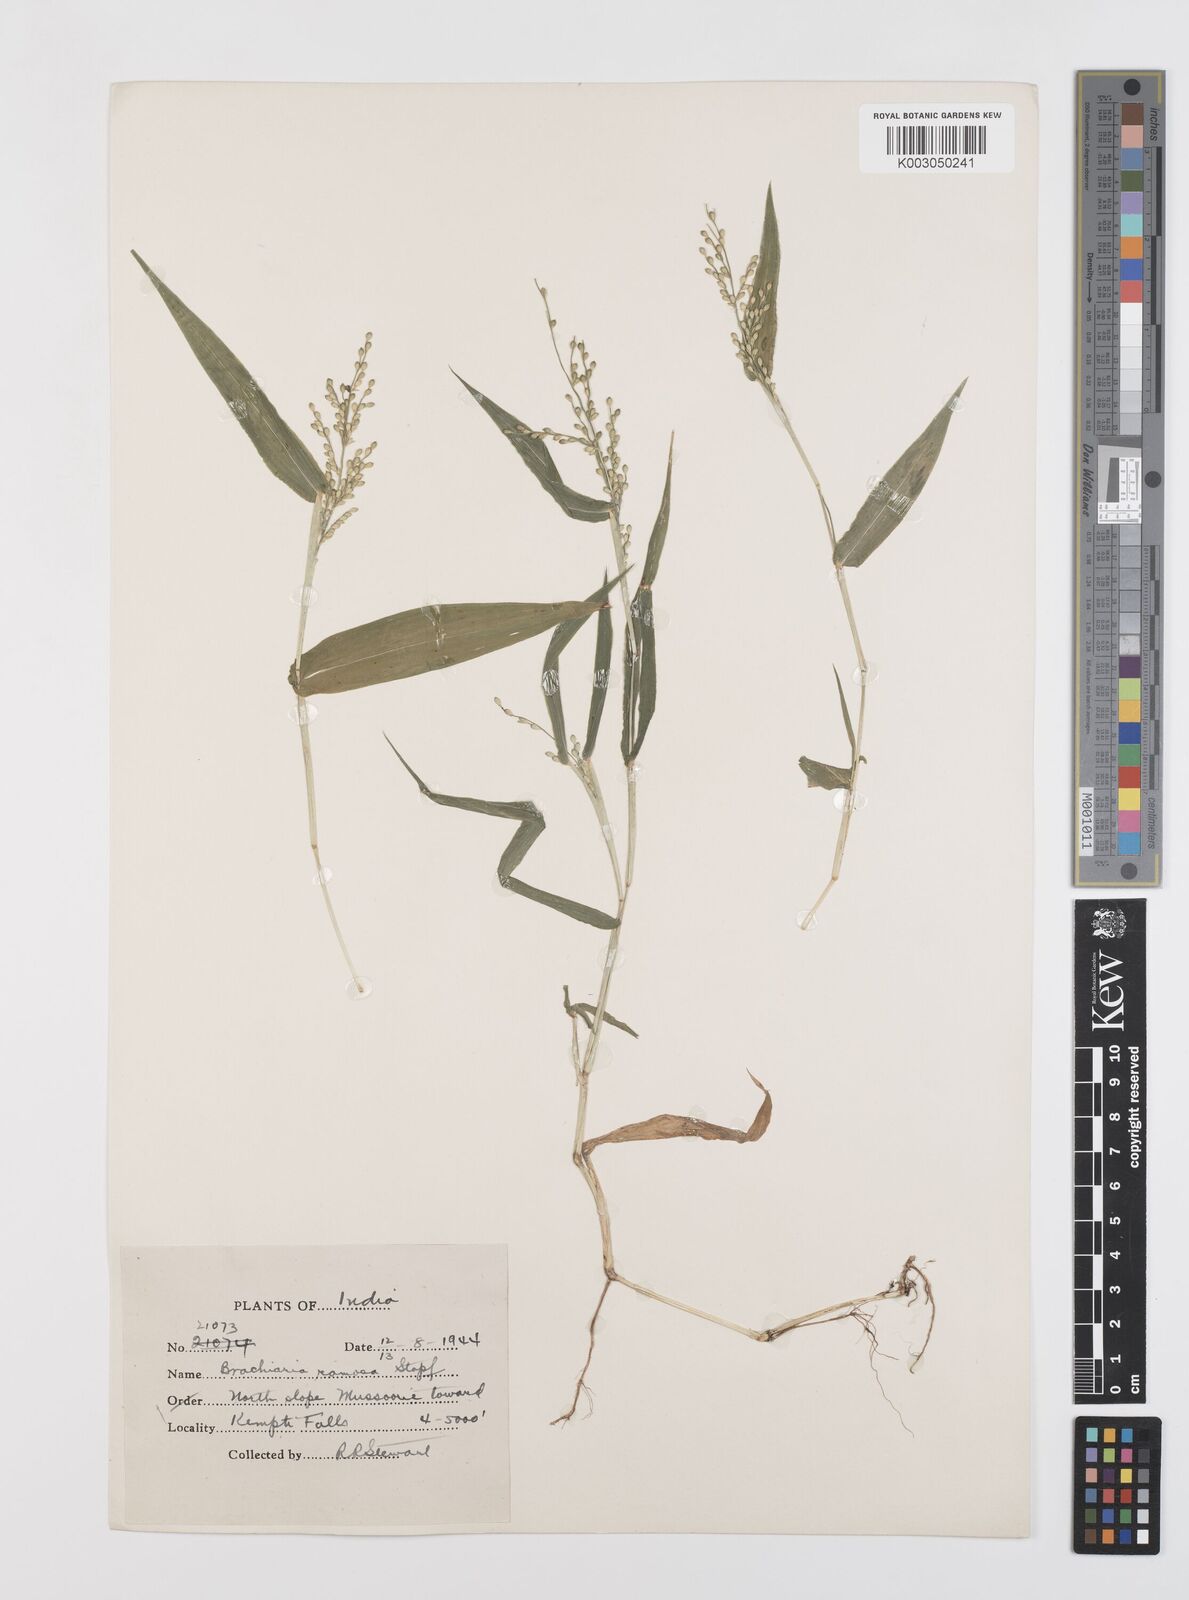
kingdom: Plantae
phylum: Tracheophyta
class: Liliopsida
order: Poales
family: Poaceae
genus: Urochloa
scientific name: Urochloa ramosa
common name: Browntop millet
